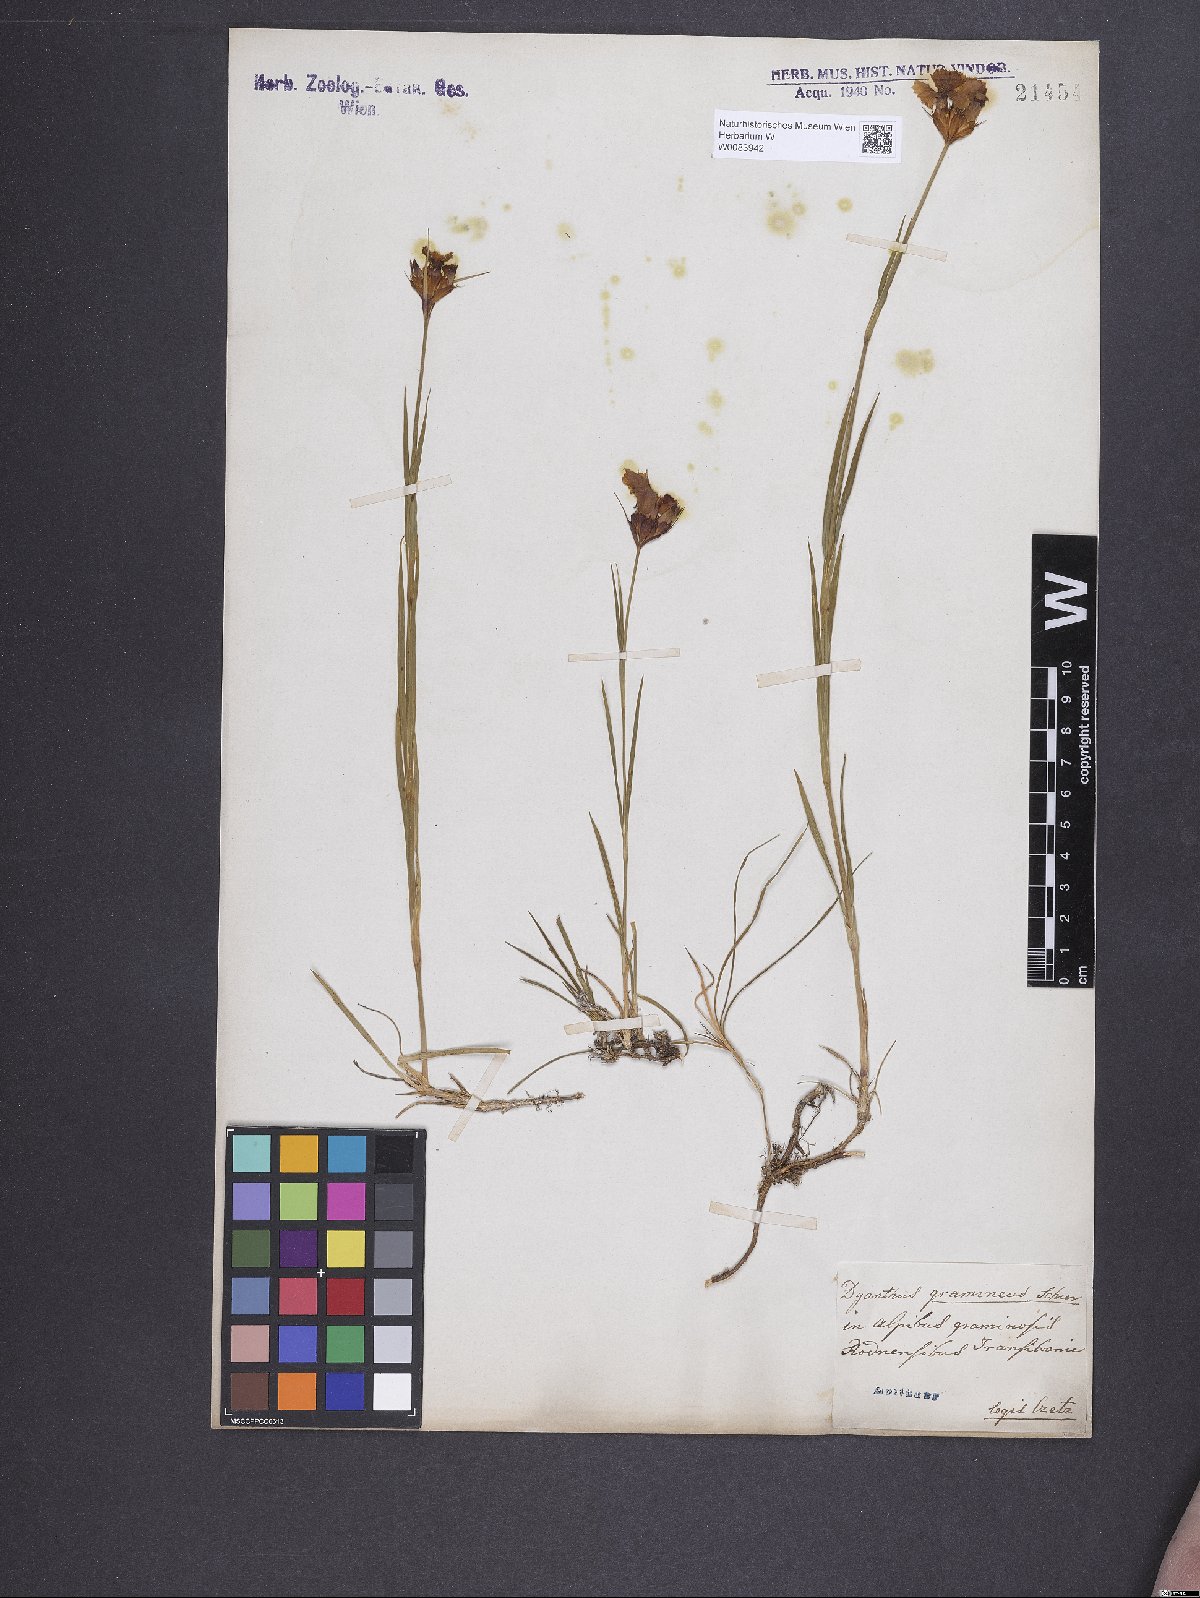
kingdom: Plantae
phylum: Tracheophyta
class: Magnoliopsida
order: Caryophyllales
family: Caryophyllaceae
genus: Dianthus
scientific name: Dianthus carthusianorum
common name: Carthusian pink
